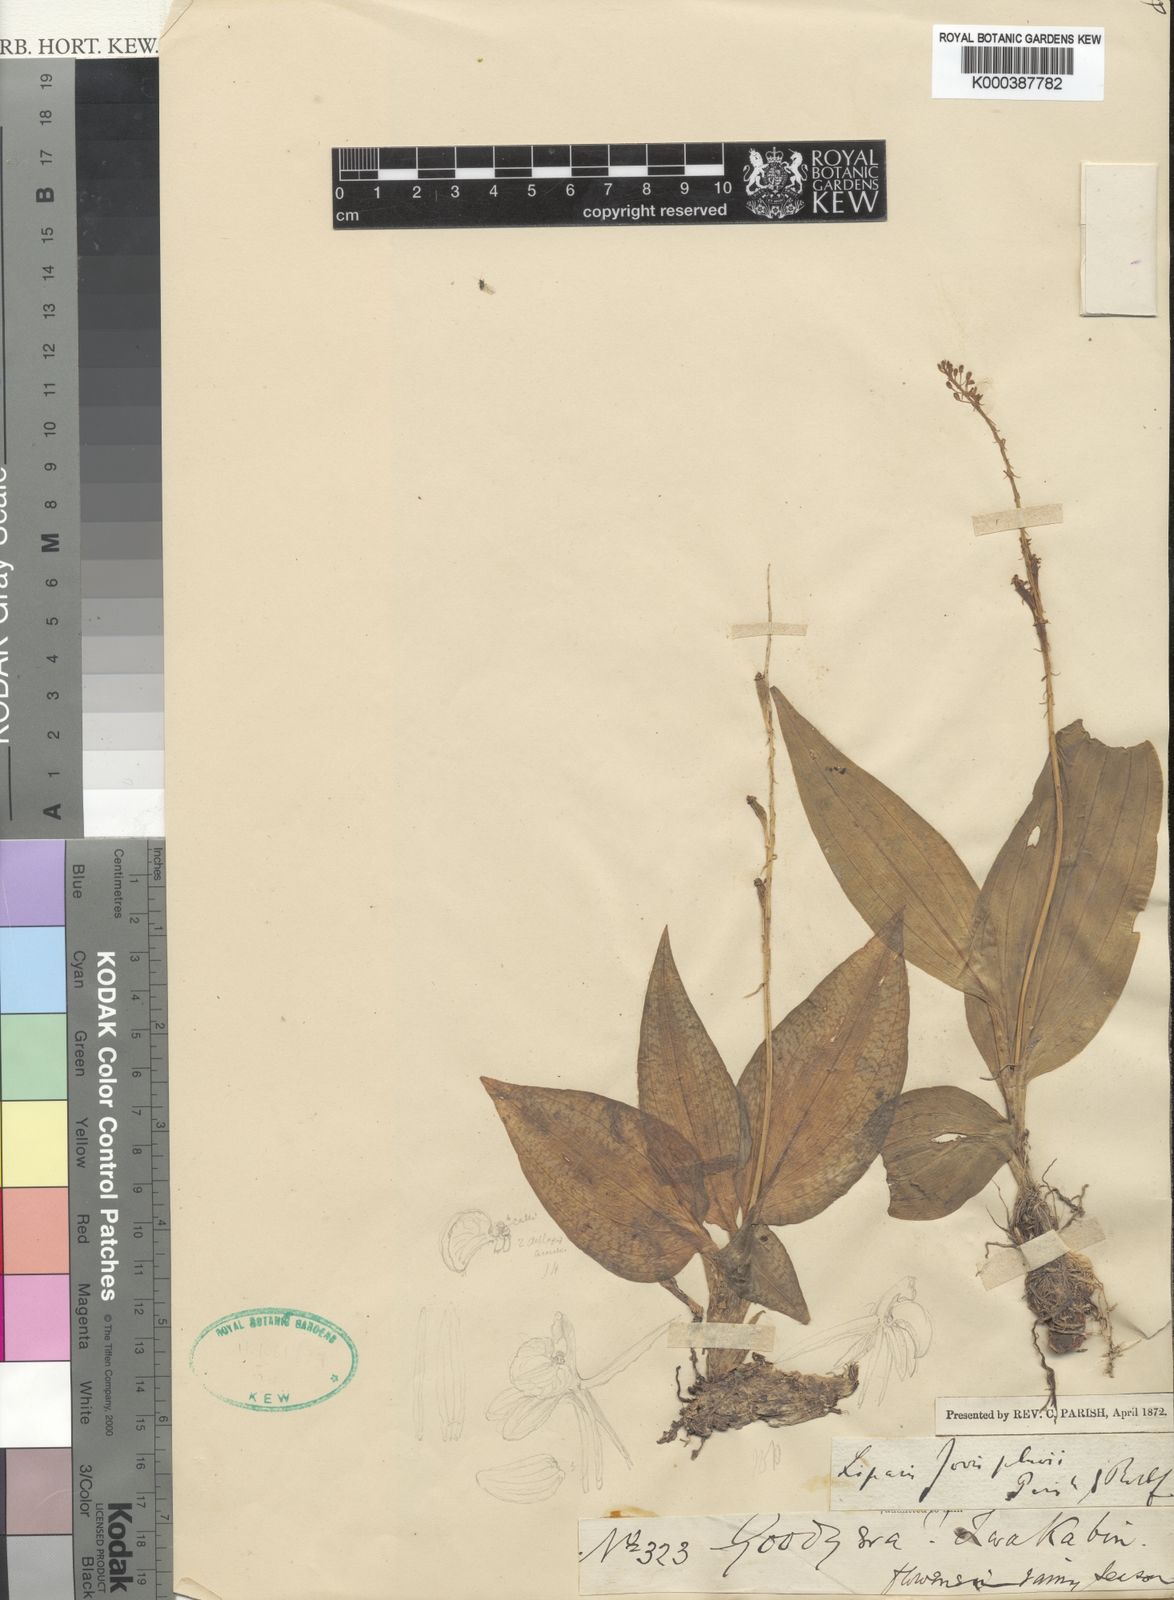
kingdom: Plantae
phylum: Tracheophyta
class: Liliopsida
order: Asparagales
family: Orchidaceae
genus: Liparis
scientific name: Liparis jovispluvii
